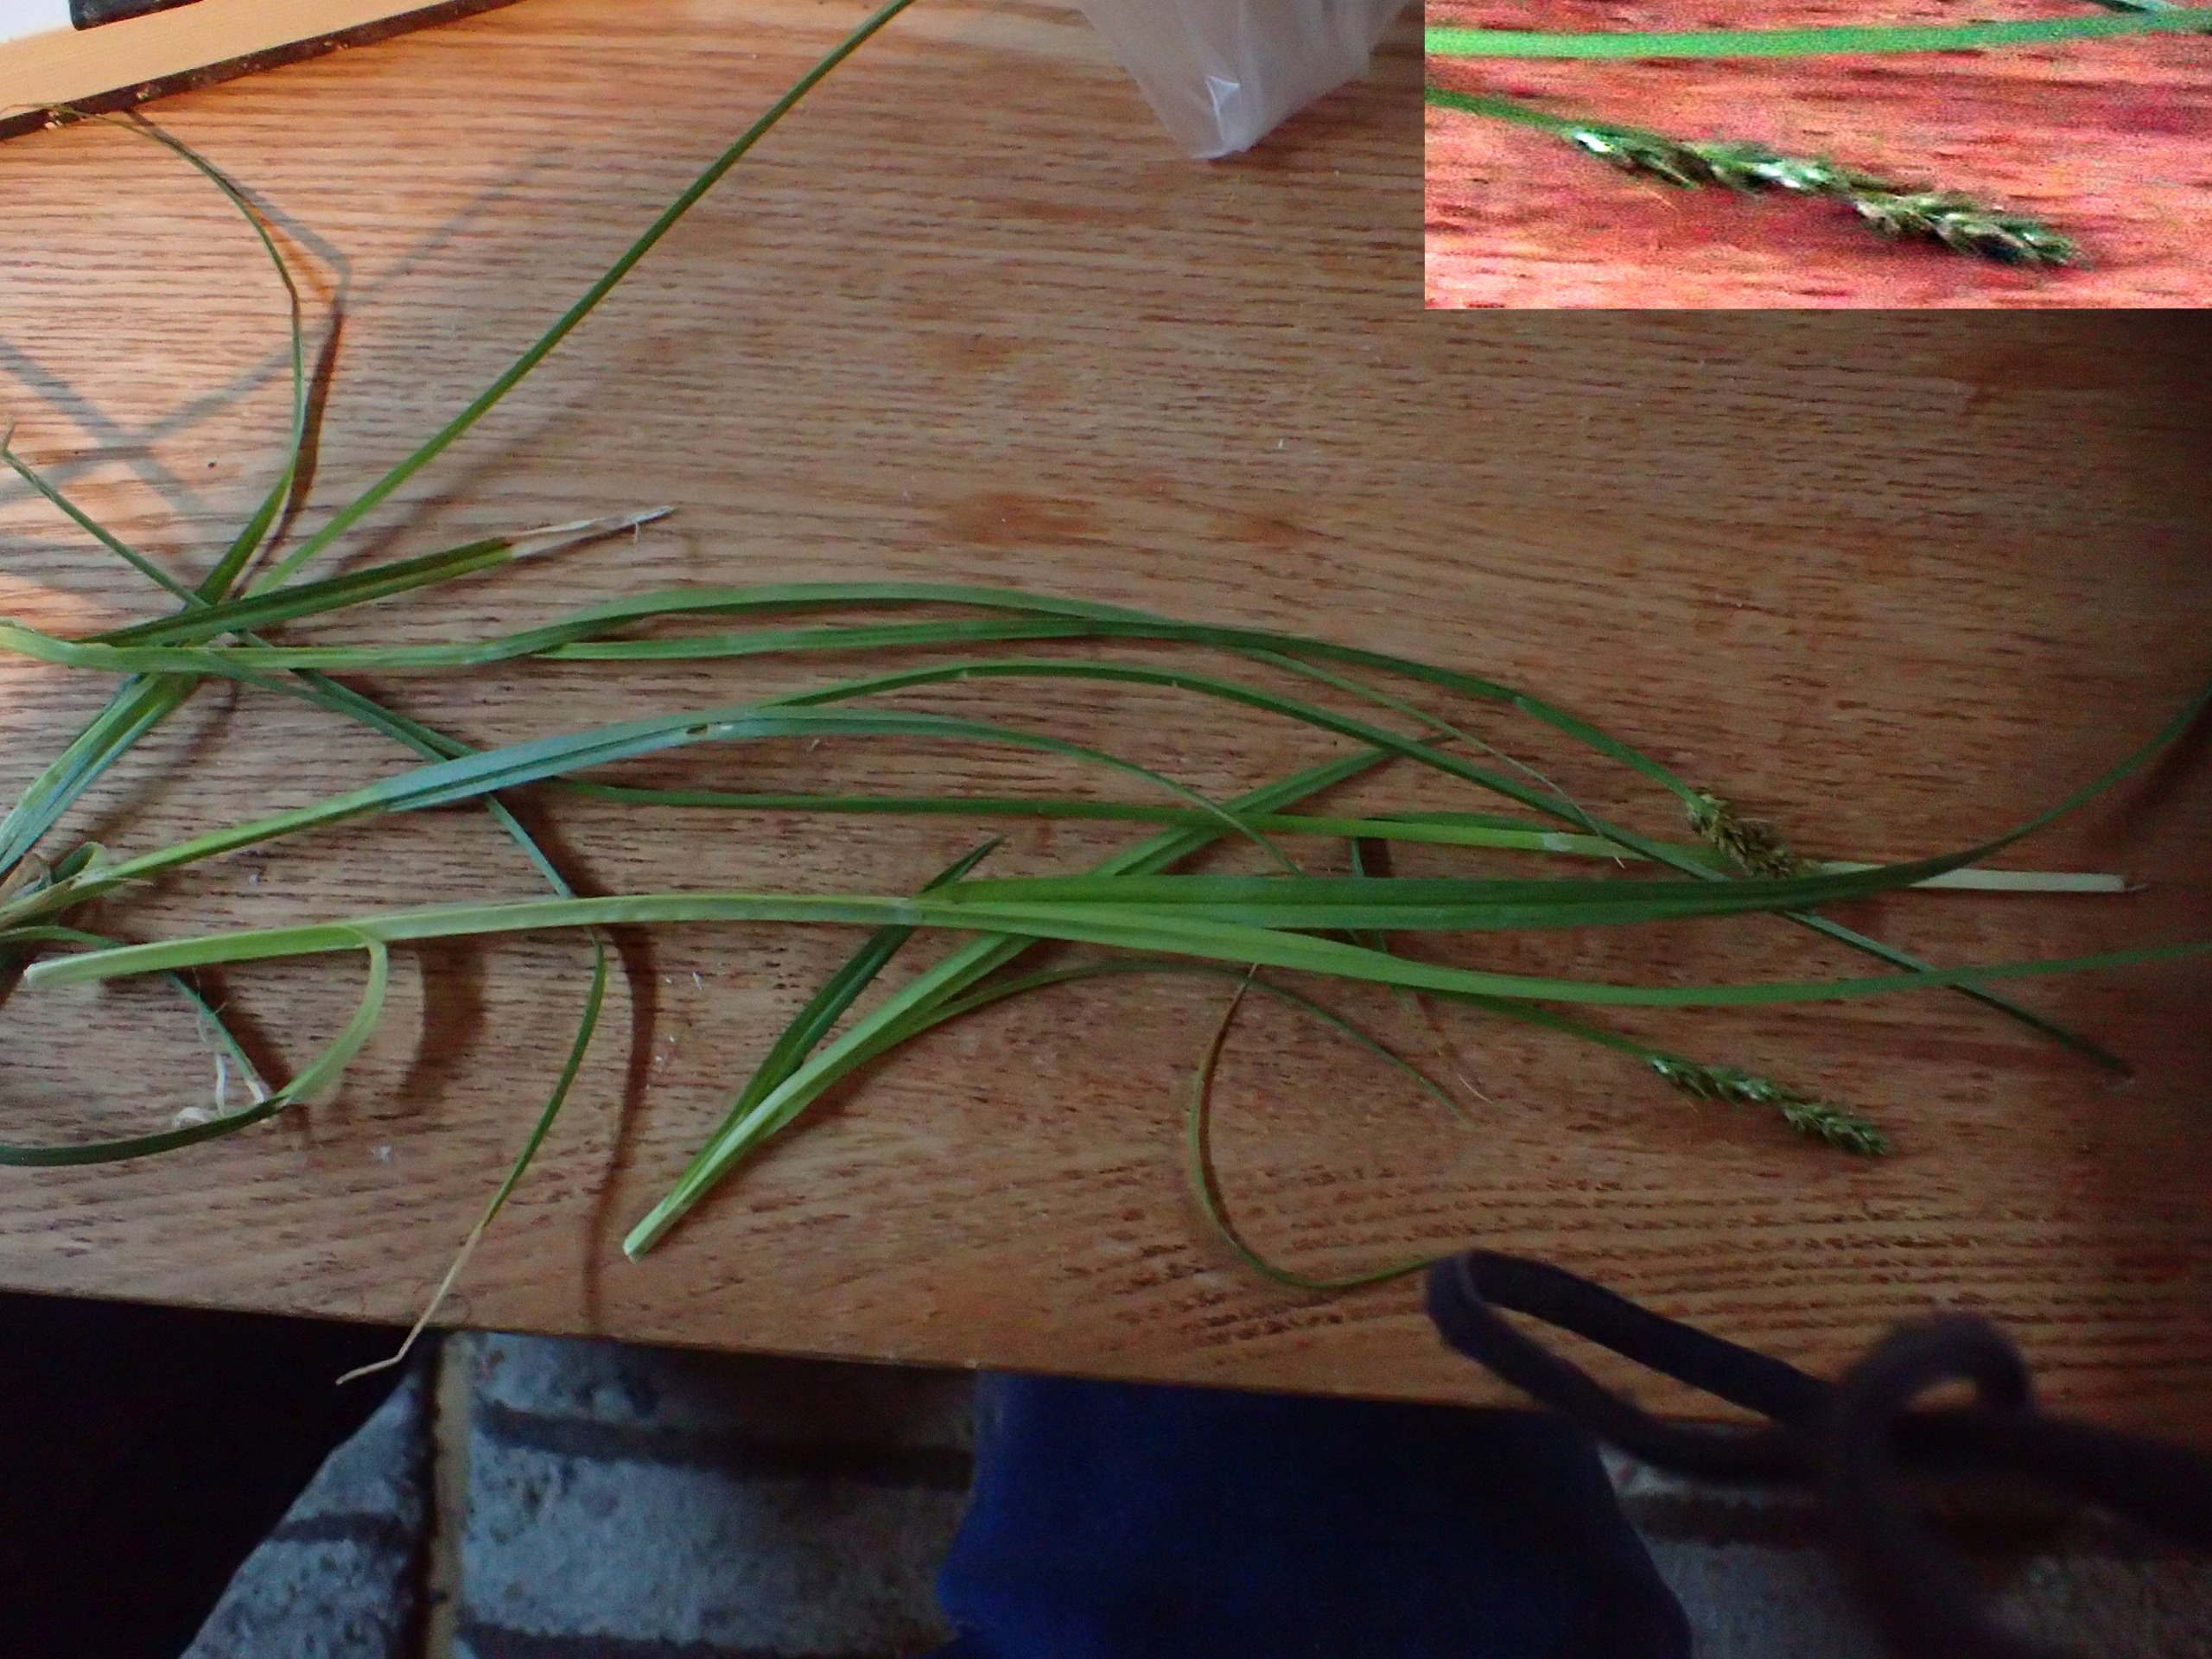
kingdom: Plantae
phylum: Tracheophyta
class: Liliopsida
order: Poales
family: Cyperaceae
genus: Carex
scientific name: Carex pairae
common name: Pigget star
